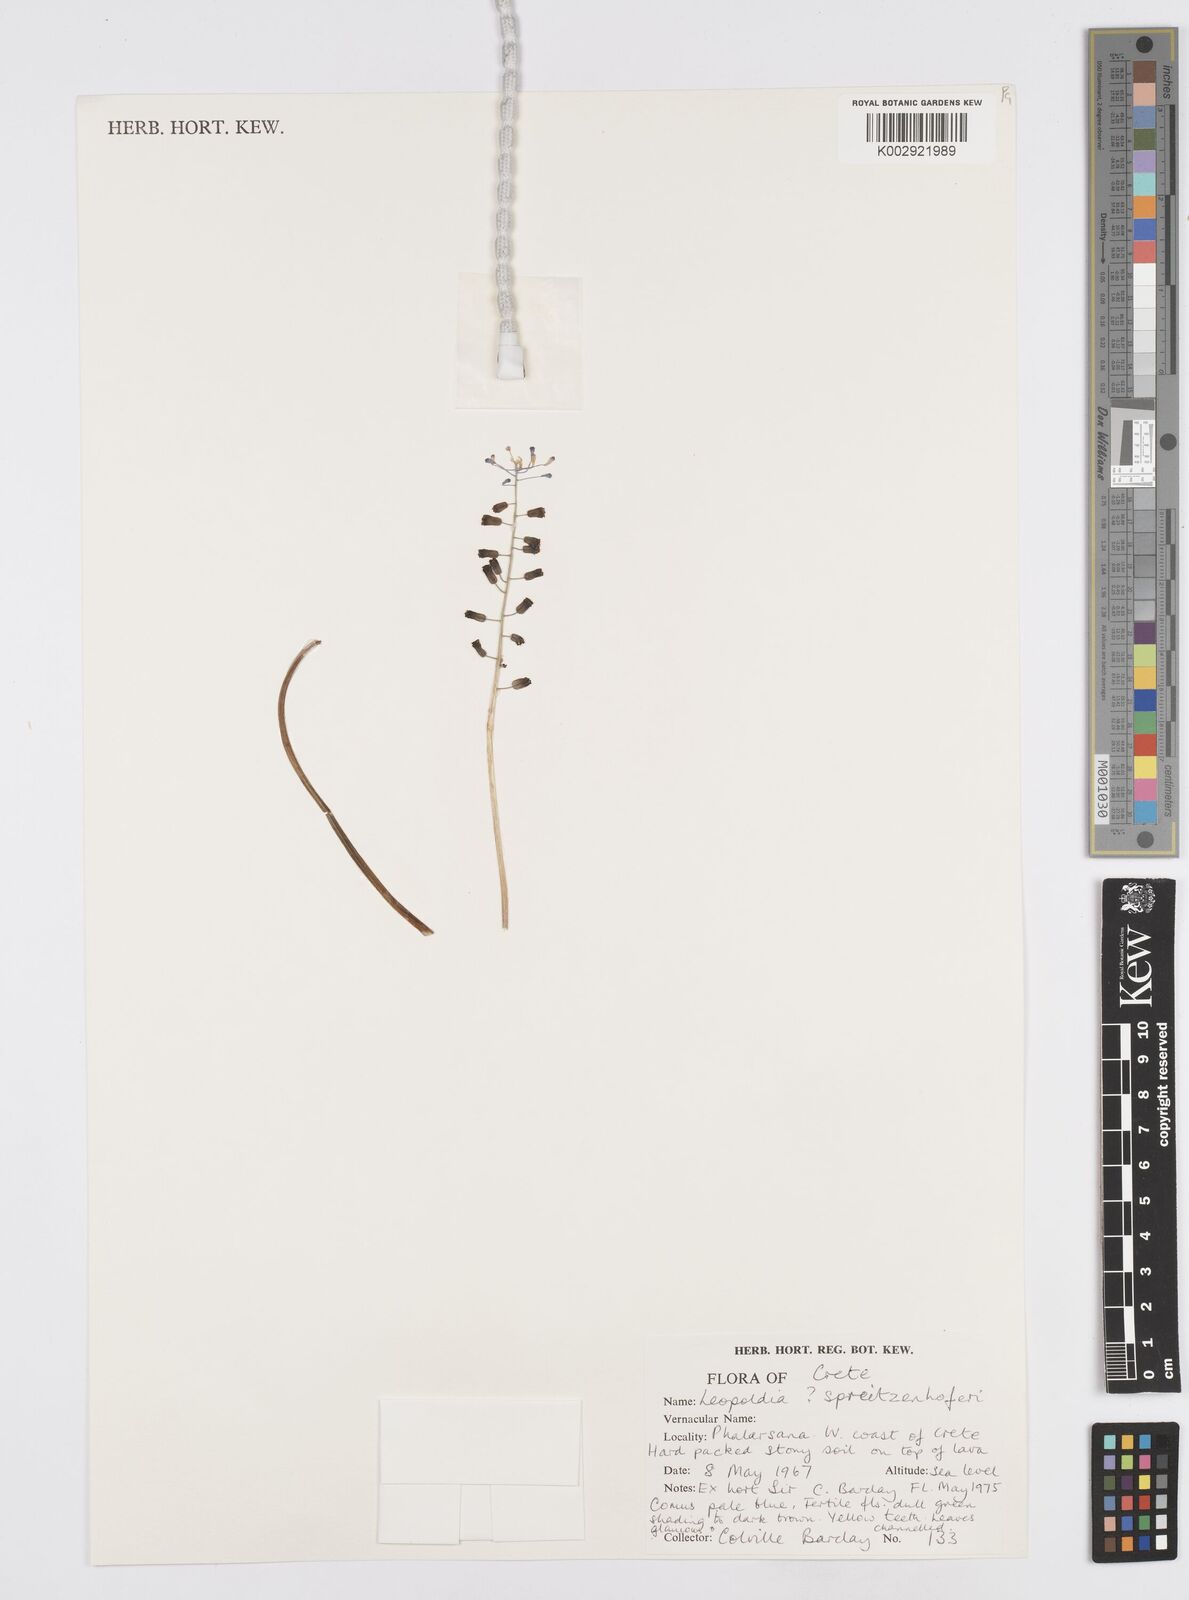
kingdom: Plantae
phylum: Tracheophyta
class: Liliopsida
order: Asparagales
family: Asparagaceae
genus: Muscari
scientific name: Muscari spreitzenhoferi
